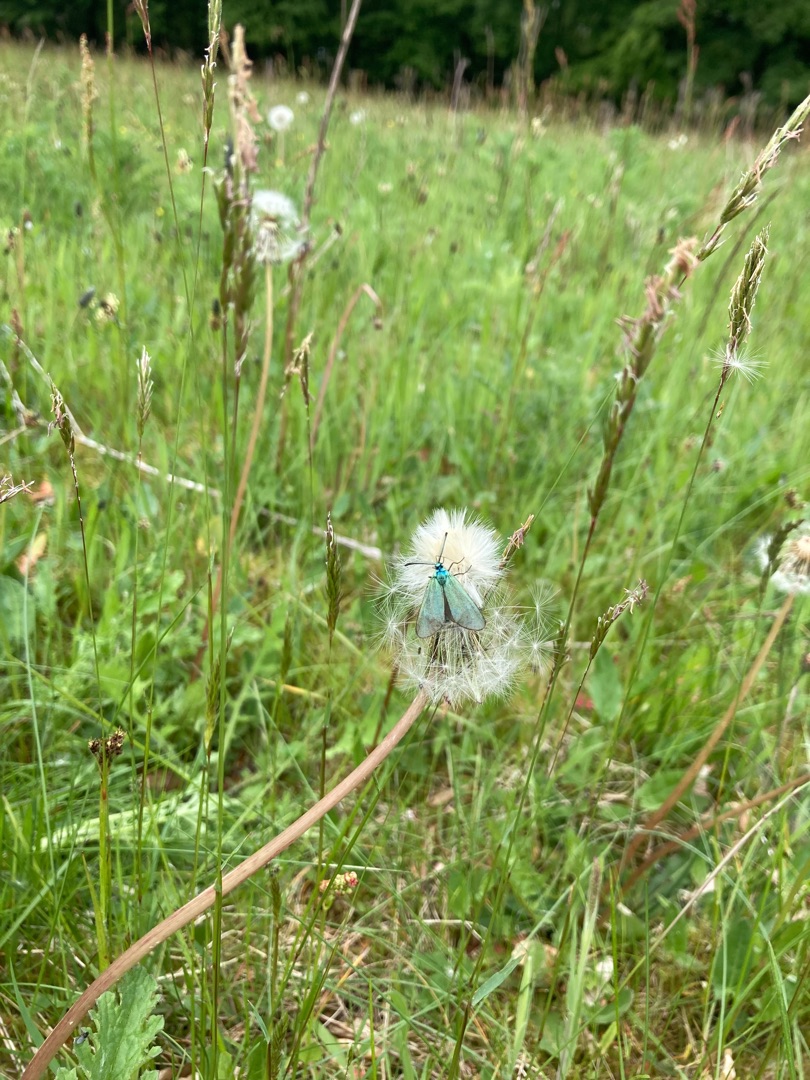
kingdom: Animalia
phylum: Arthropoda
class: Insecta
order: Lepidoptera
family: Zygaenidae
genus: Adscita
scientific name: Adscita statices
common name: Metalvinge
